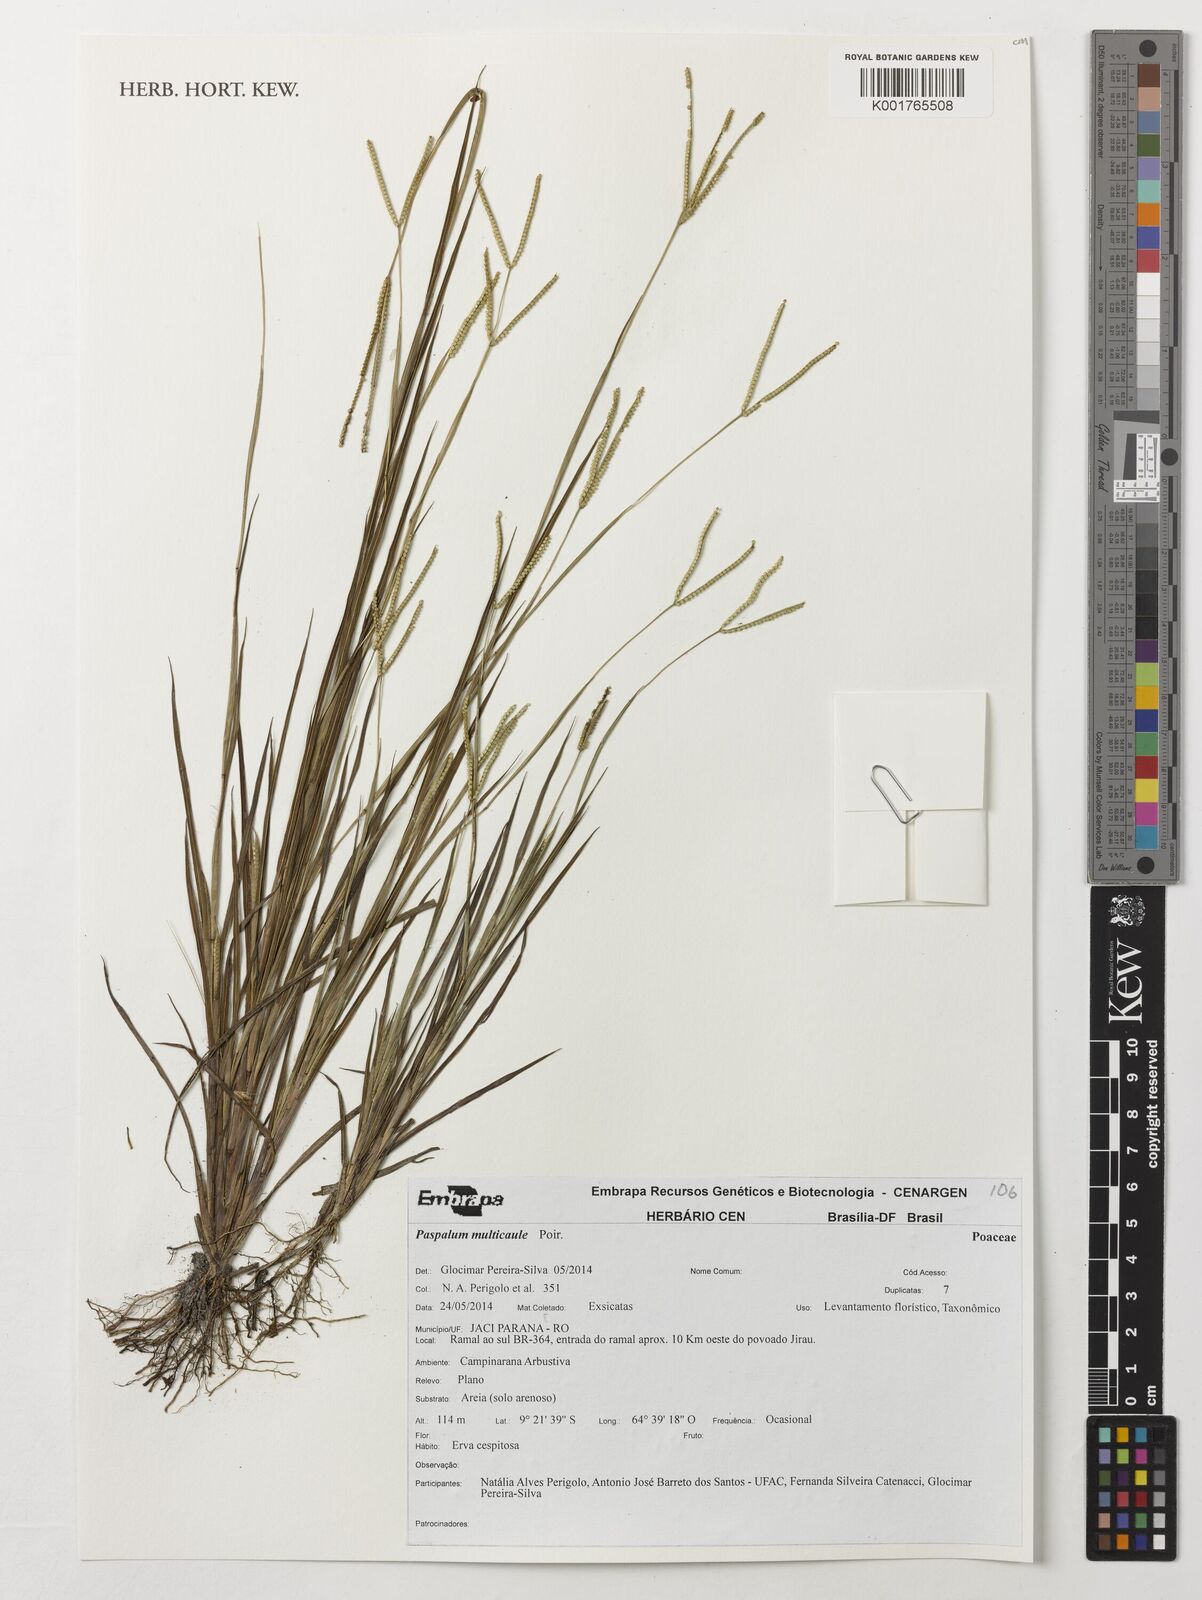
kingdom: Plantae
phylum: Tracheophyta
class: Liliopsida
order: Poales
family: Poaceae
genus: Paspalum
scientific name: Paspalum multicaule
